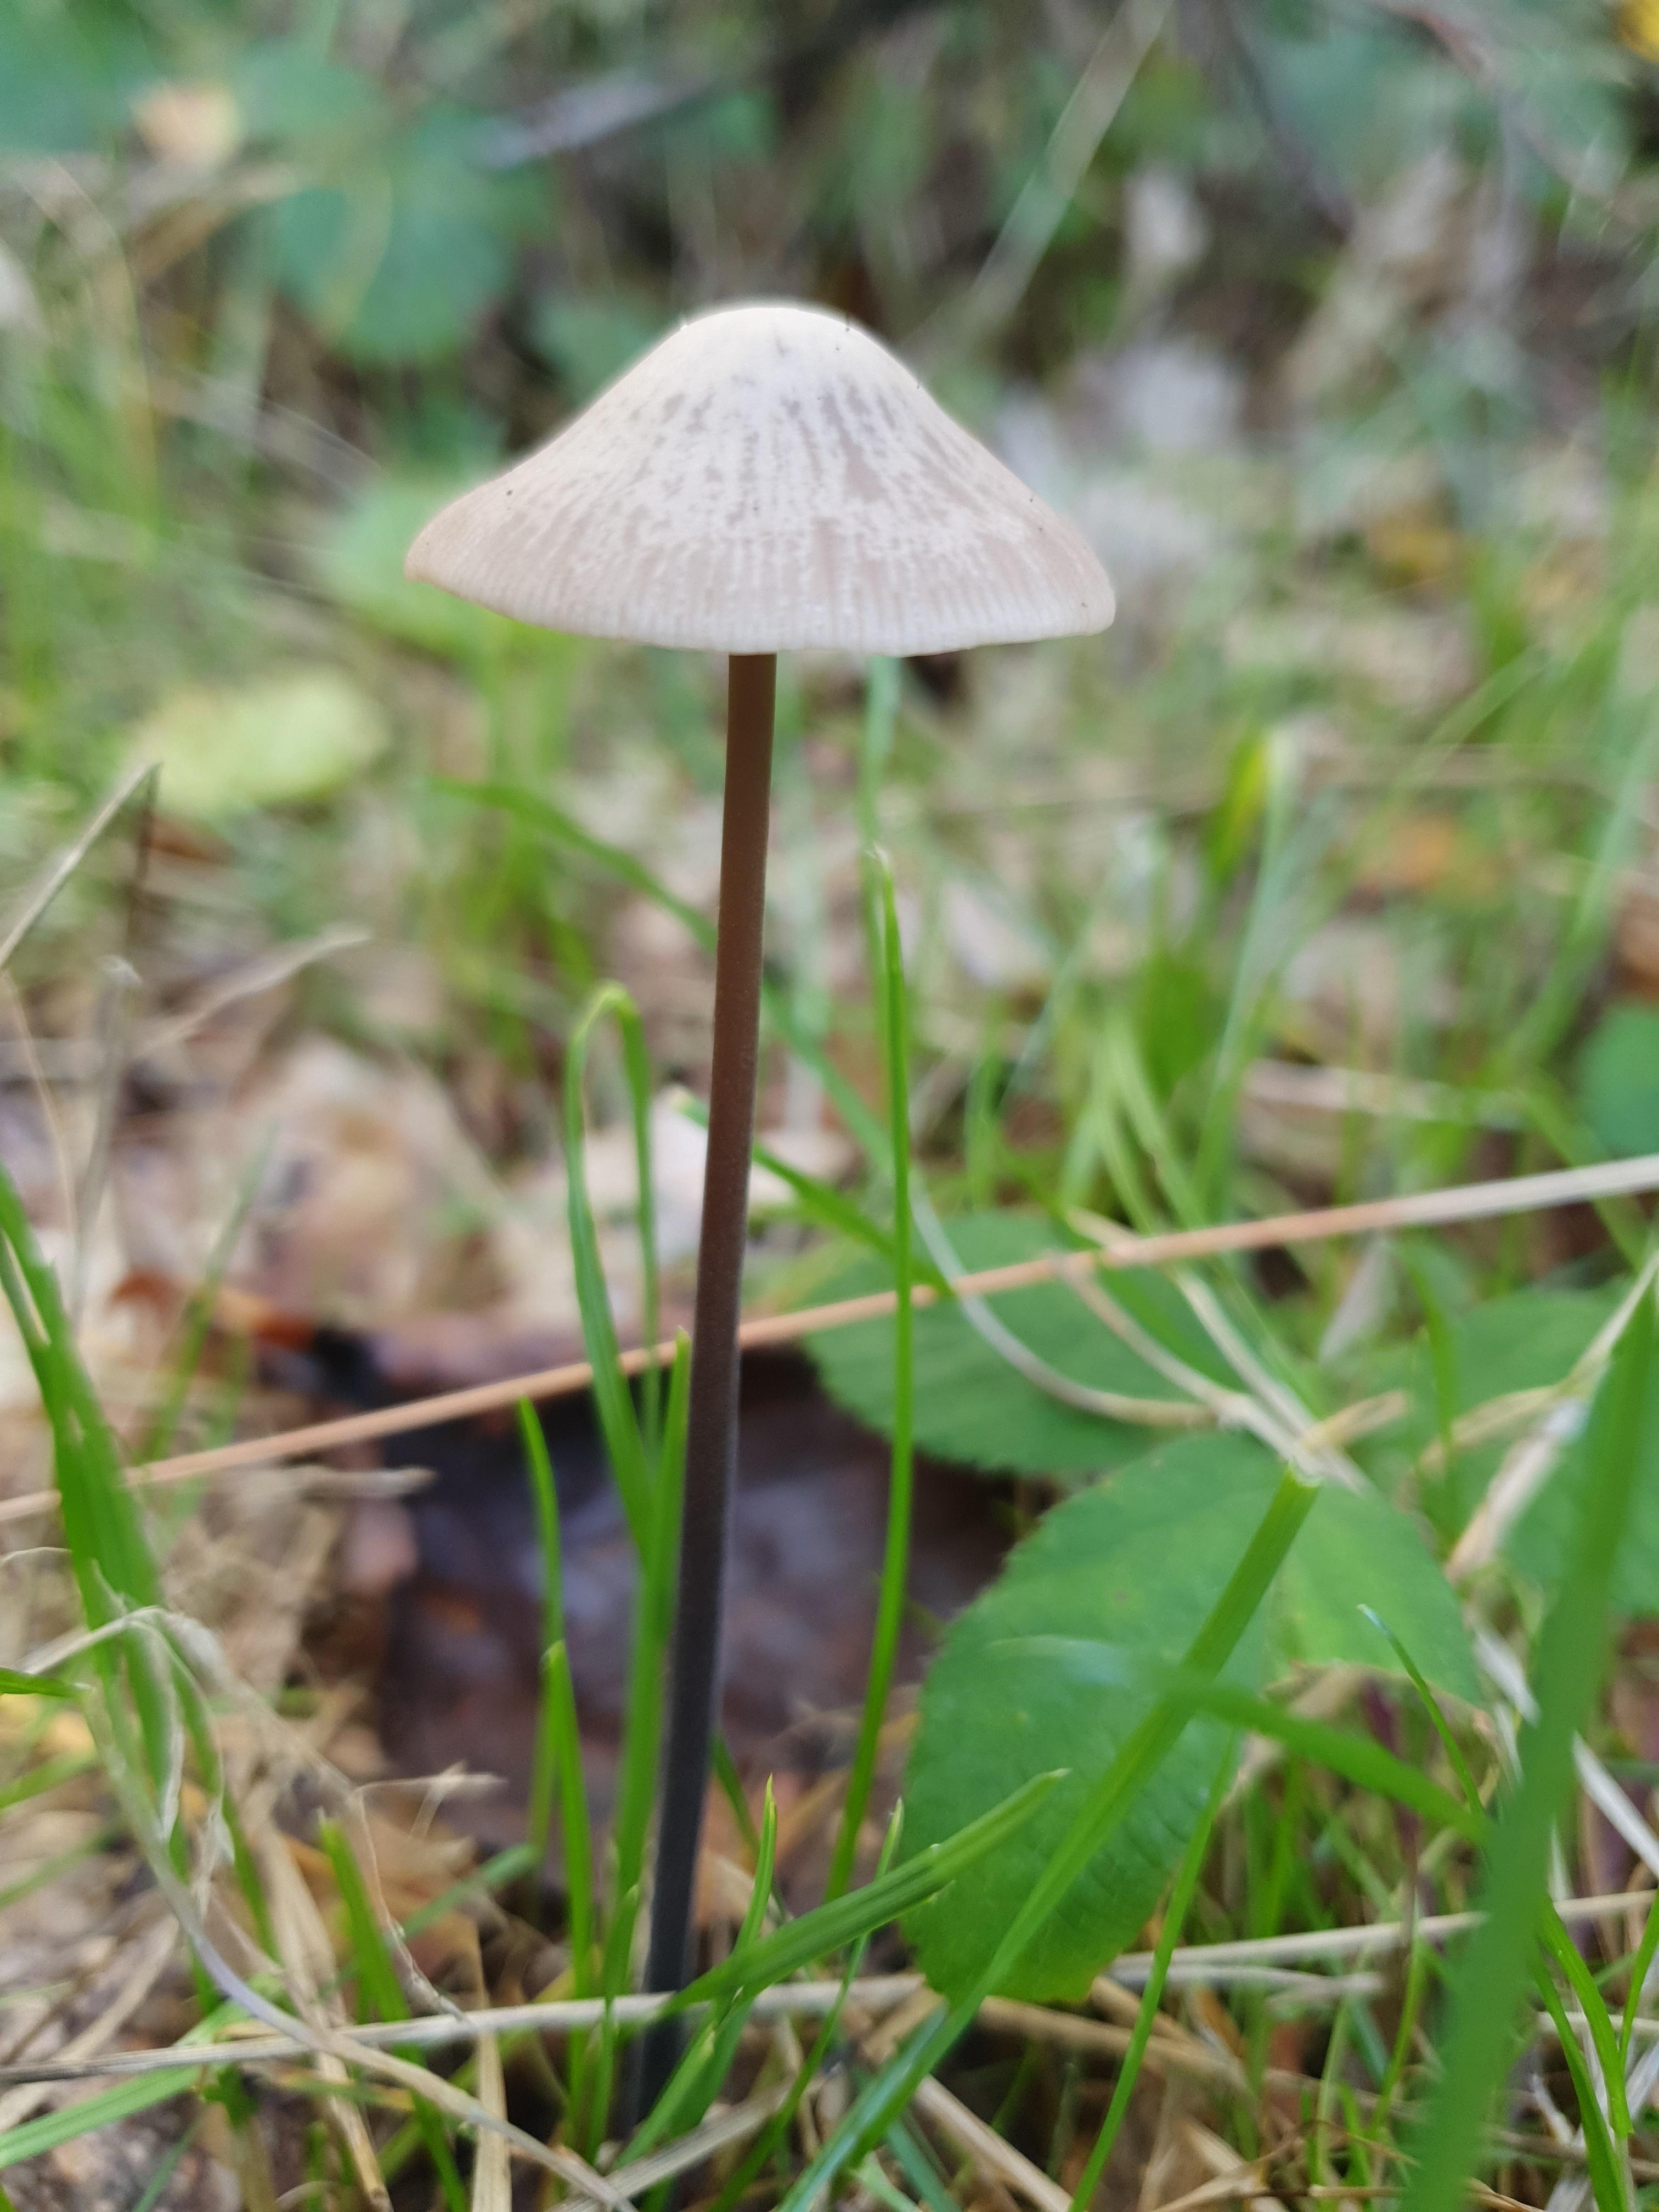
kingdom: Fungi
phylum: Basidiomycota
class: Agaricomycetes
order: Agaricales
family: Omphalotaceae
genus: Mycetinis
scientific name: Mycetinis alliaceus
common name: stor løghat
